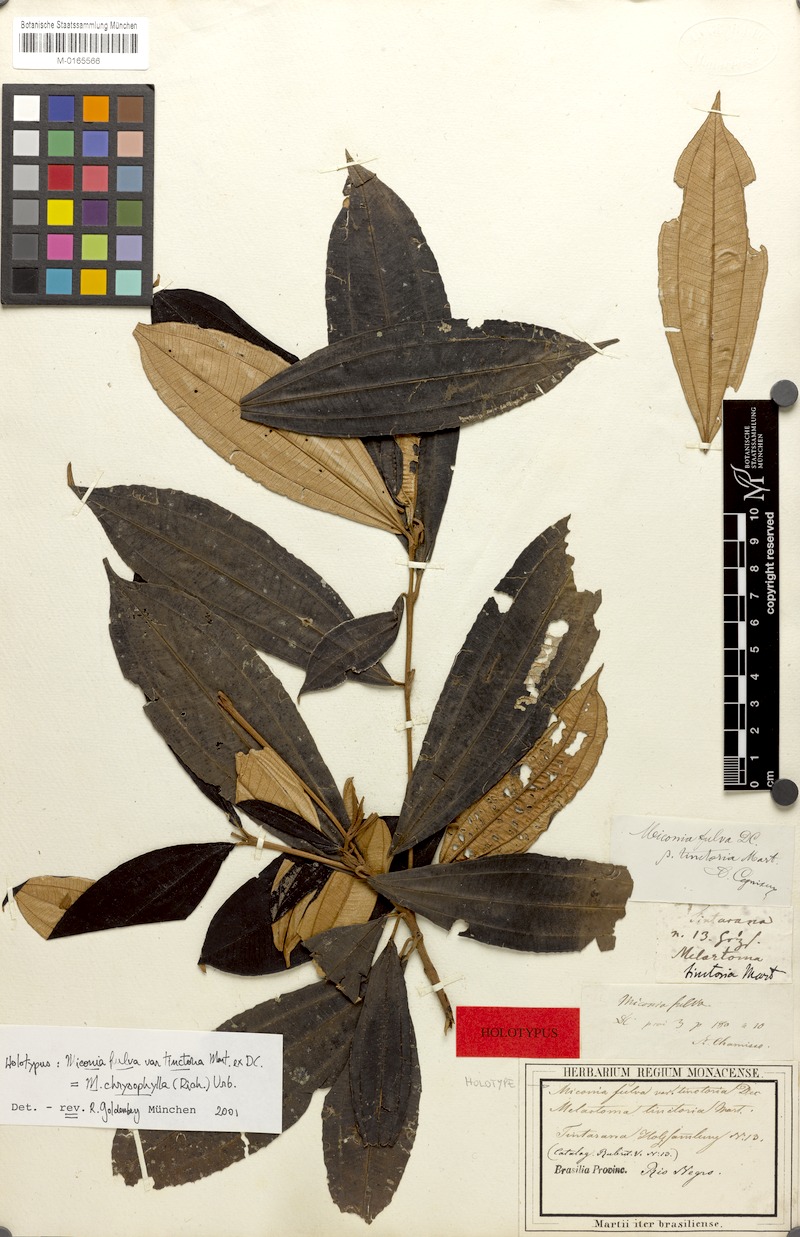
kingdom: Plantae
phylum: Tracheophyta
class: Magnoliopsida
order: Myrtales
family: Melastomataceae
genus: Miconia
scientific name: Miconia chrysophylla
